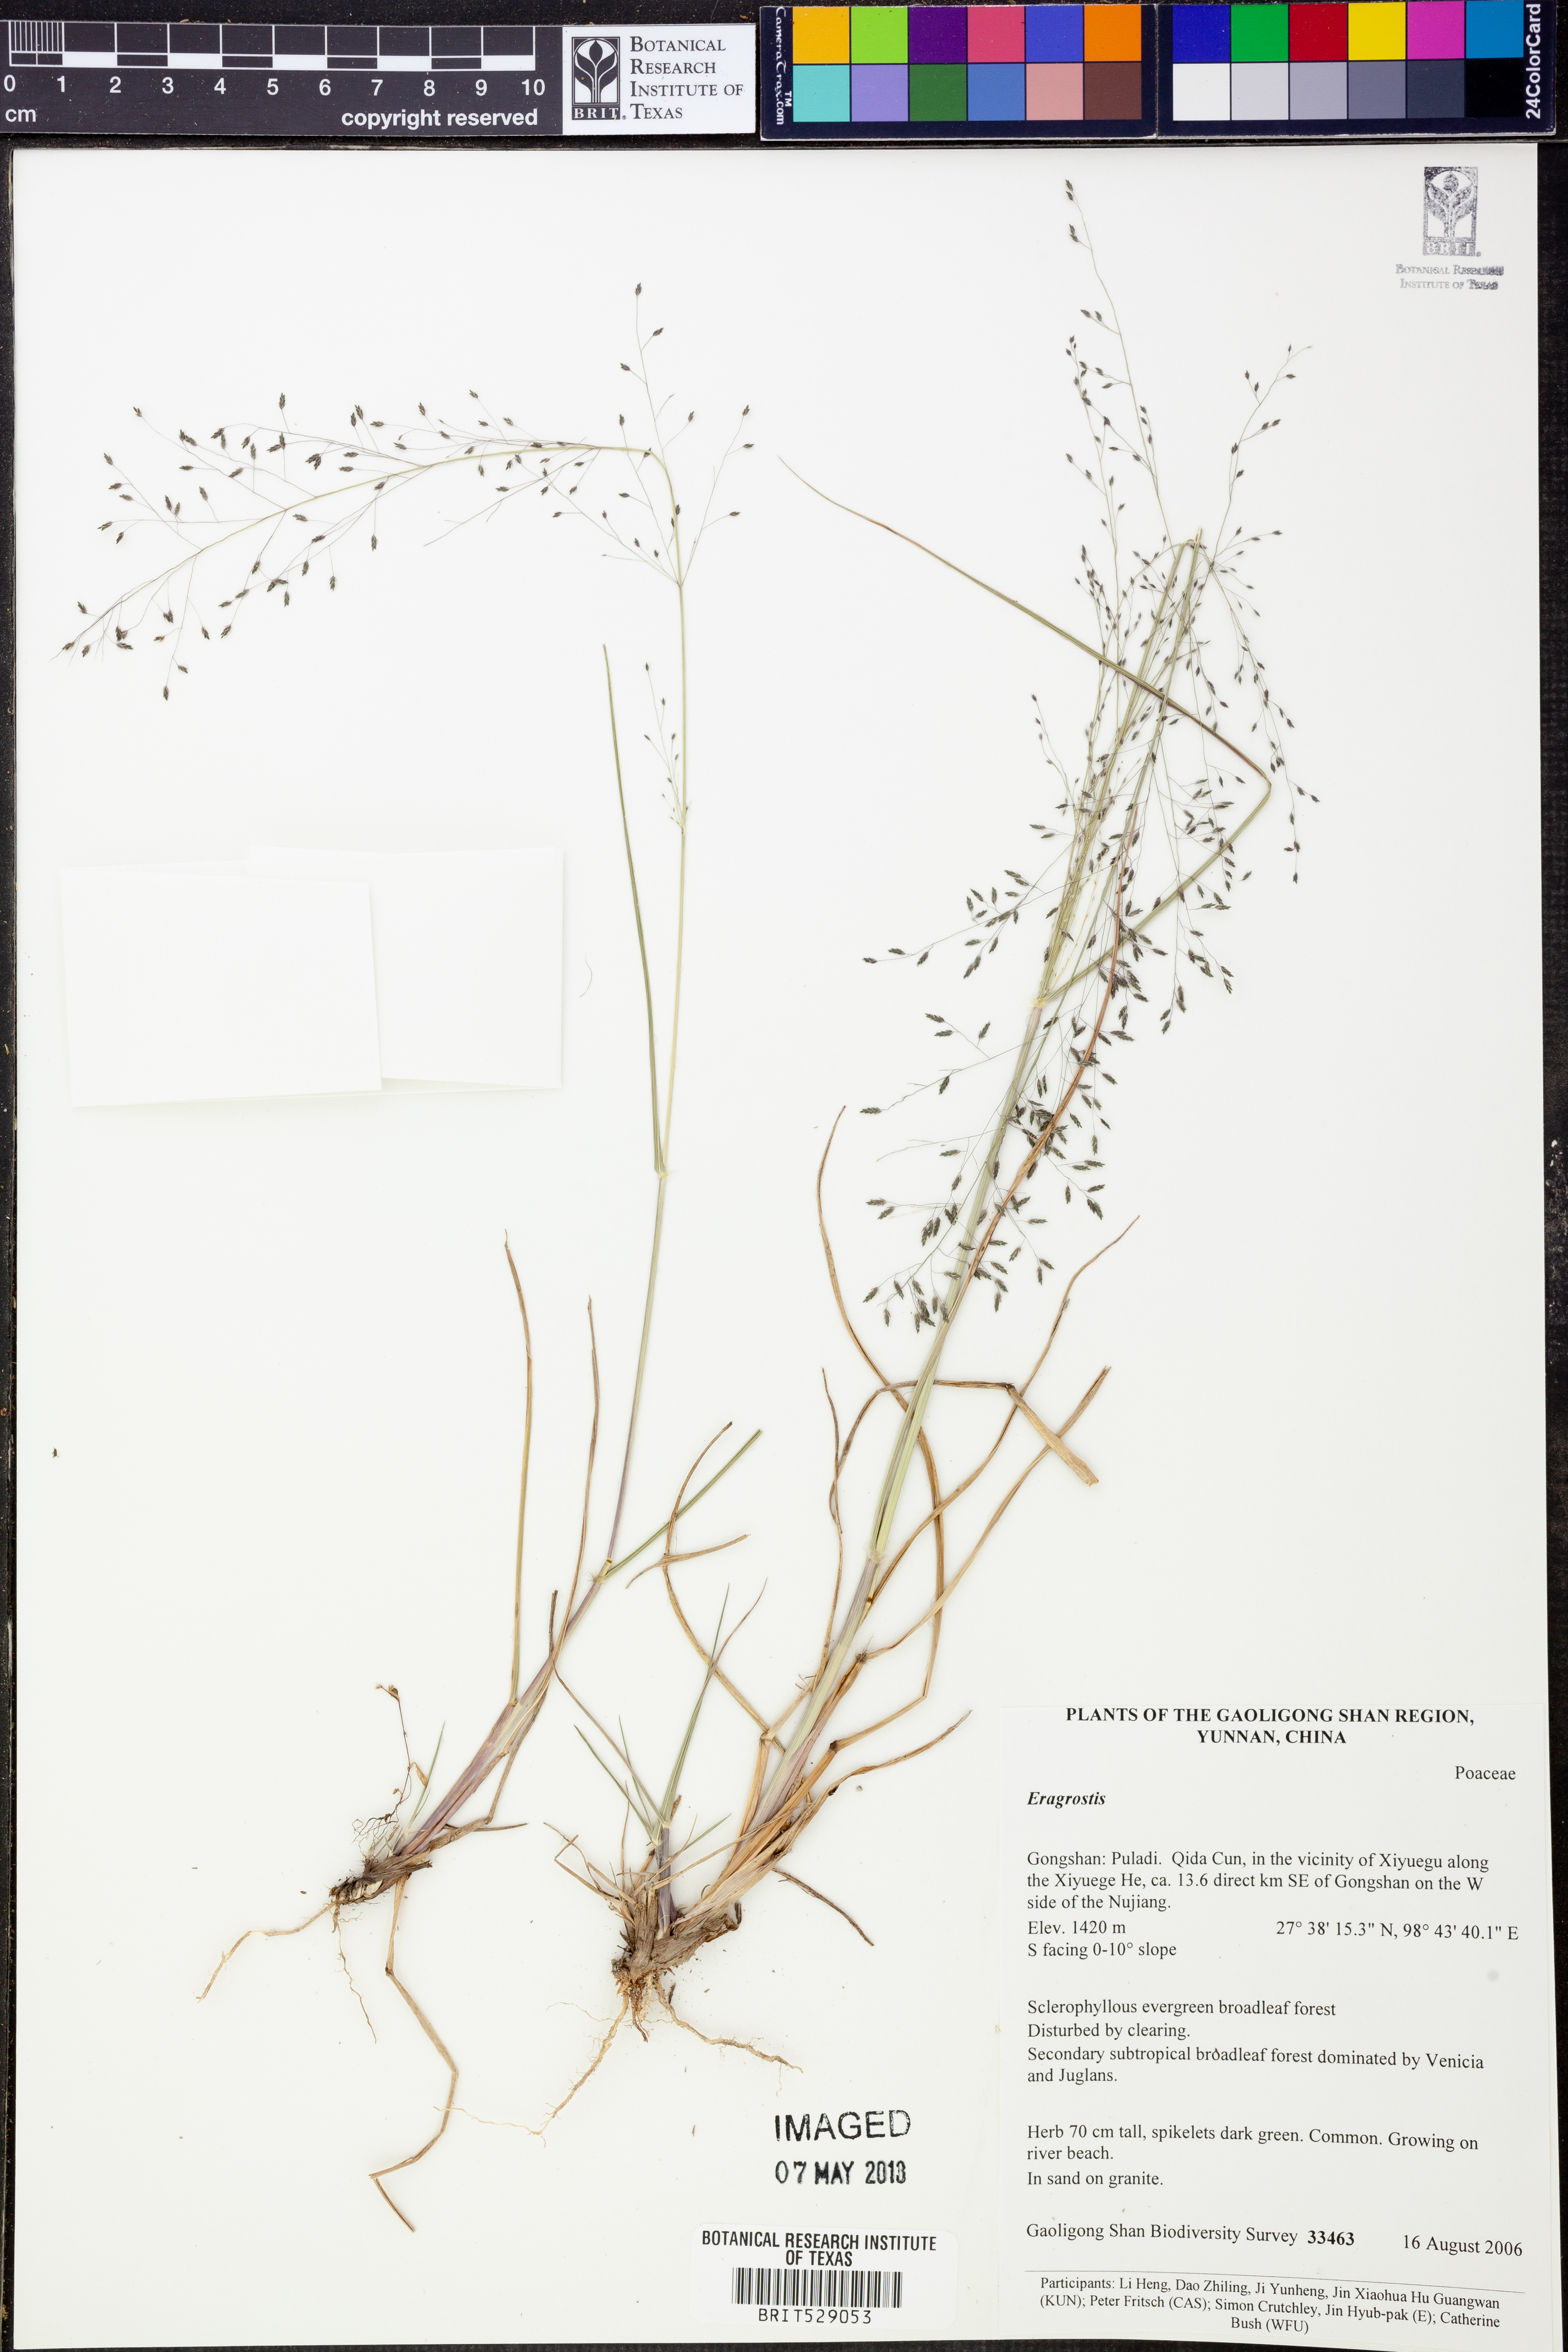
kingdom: Plantae
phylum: Tracheophyta
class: Liliopsida
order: Poales
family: Poaceae
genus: Eragrostis
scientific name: Eragrostis
